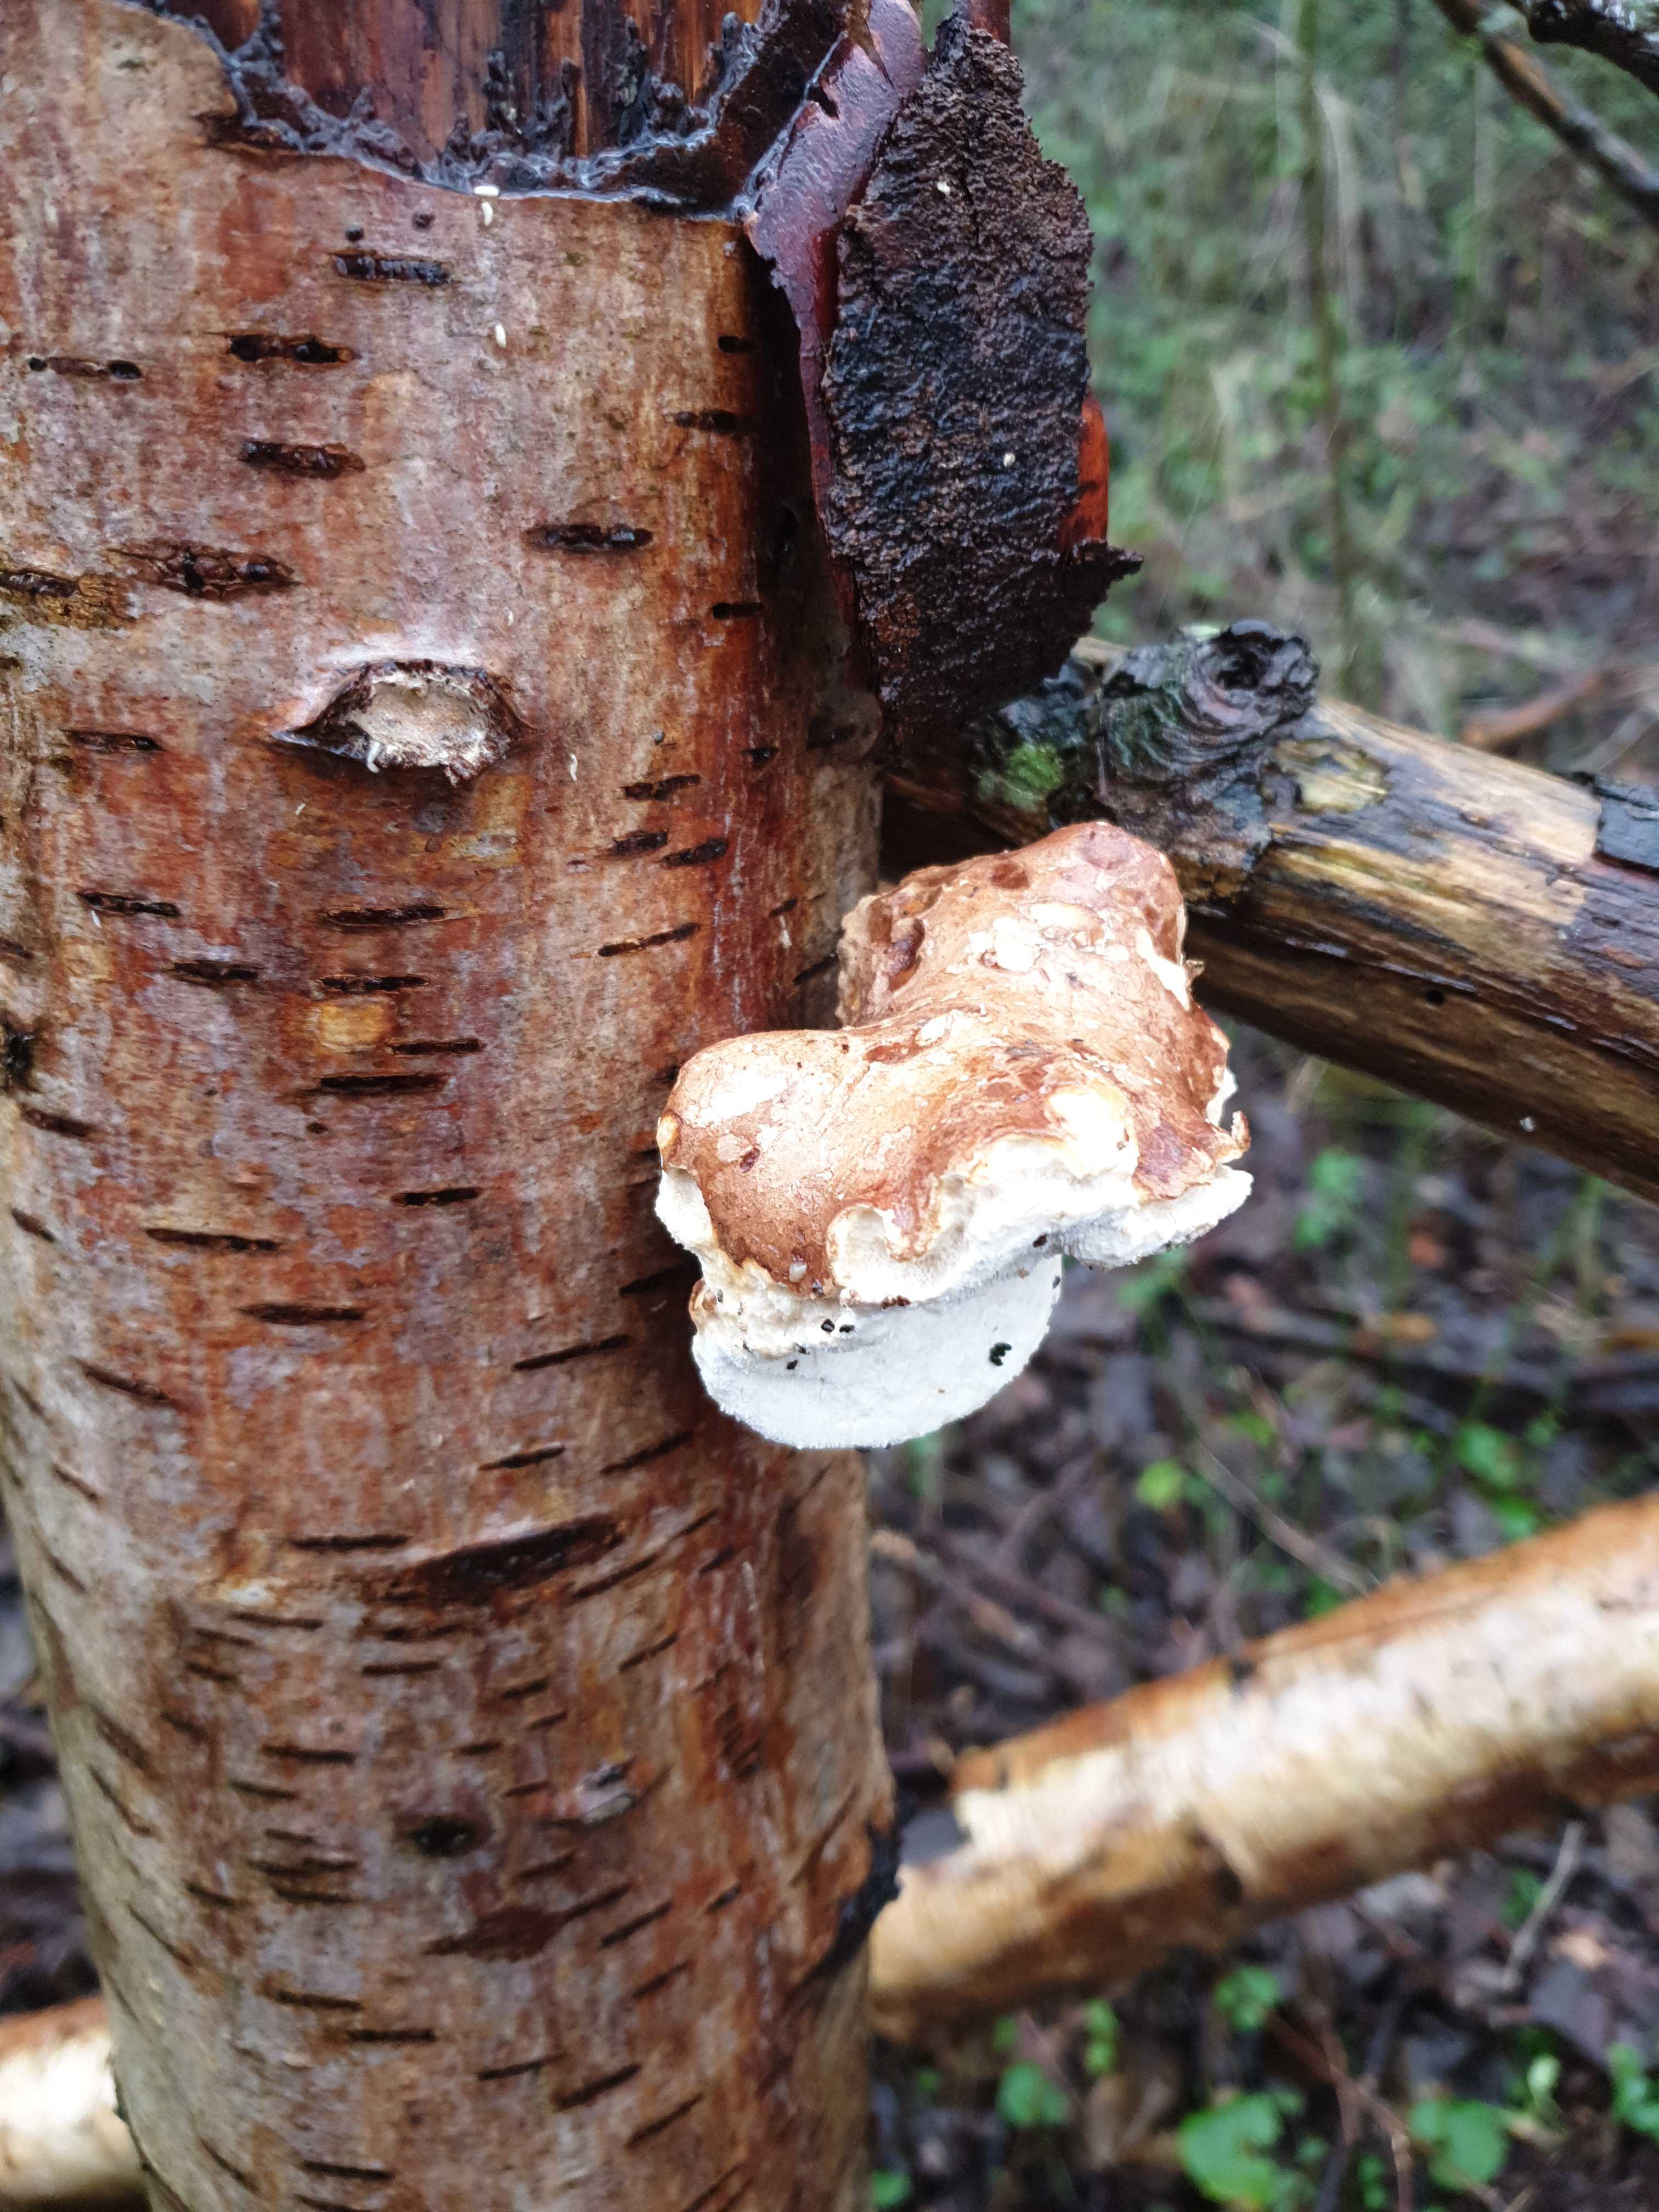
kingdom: Fungi
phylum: Basidiomycota
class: Agaricomycetes
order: Polyporales
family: Fomitopsidaceae
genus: Fomitopsis
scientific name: Fomitopsis betulina
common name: birkeporesvamp
